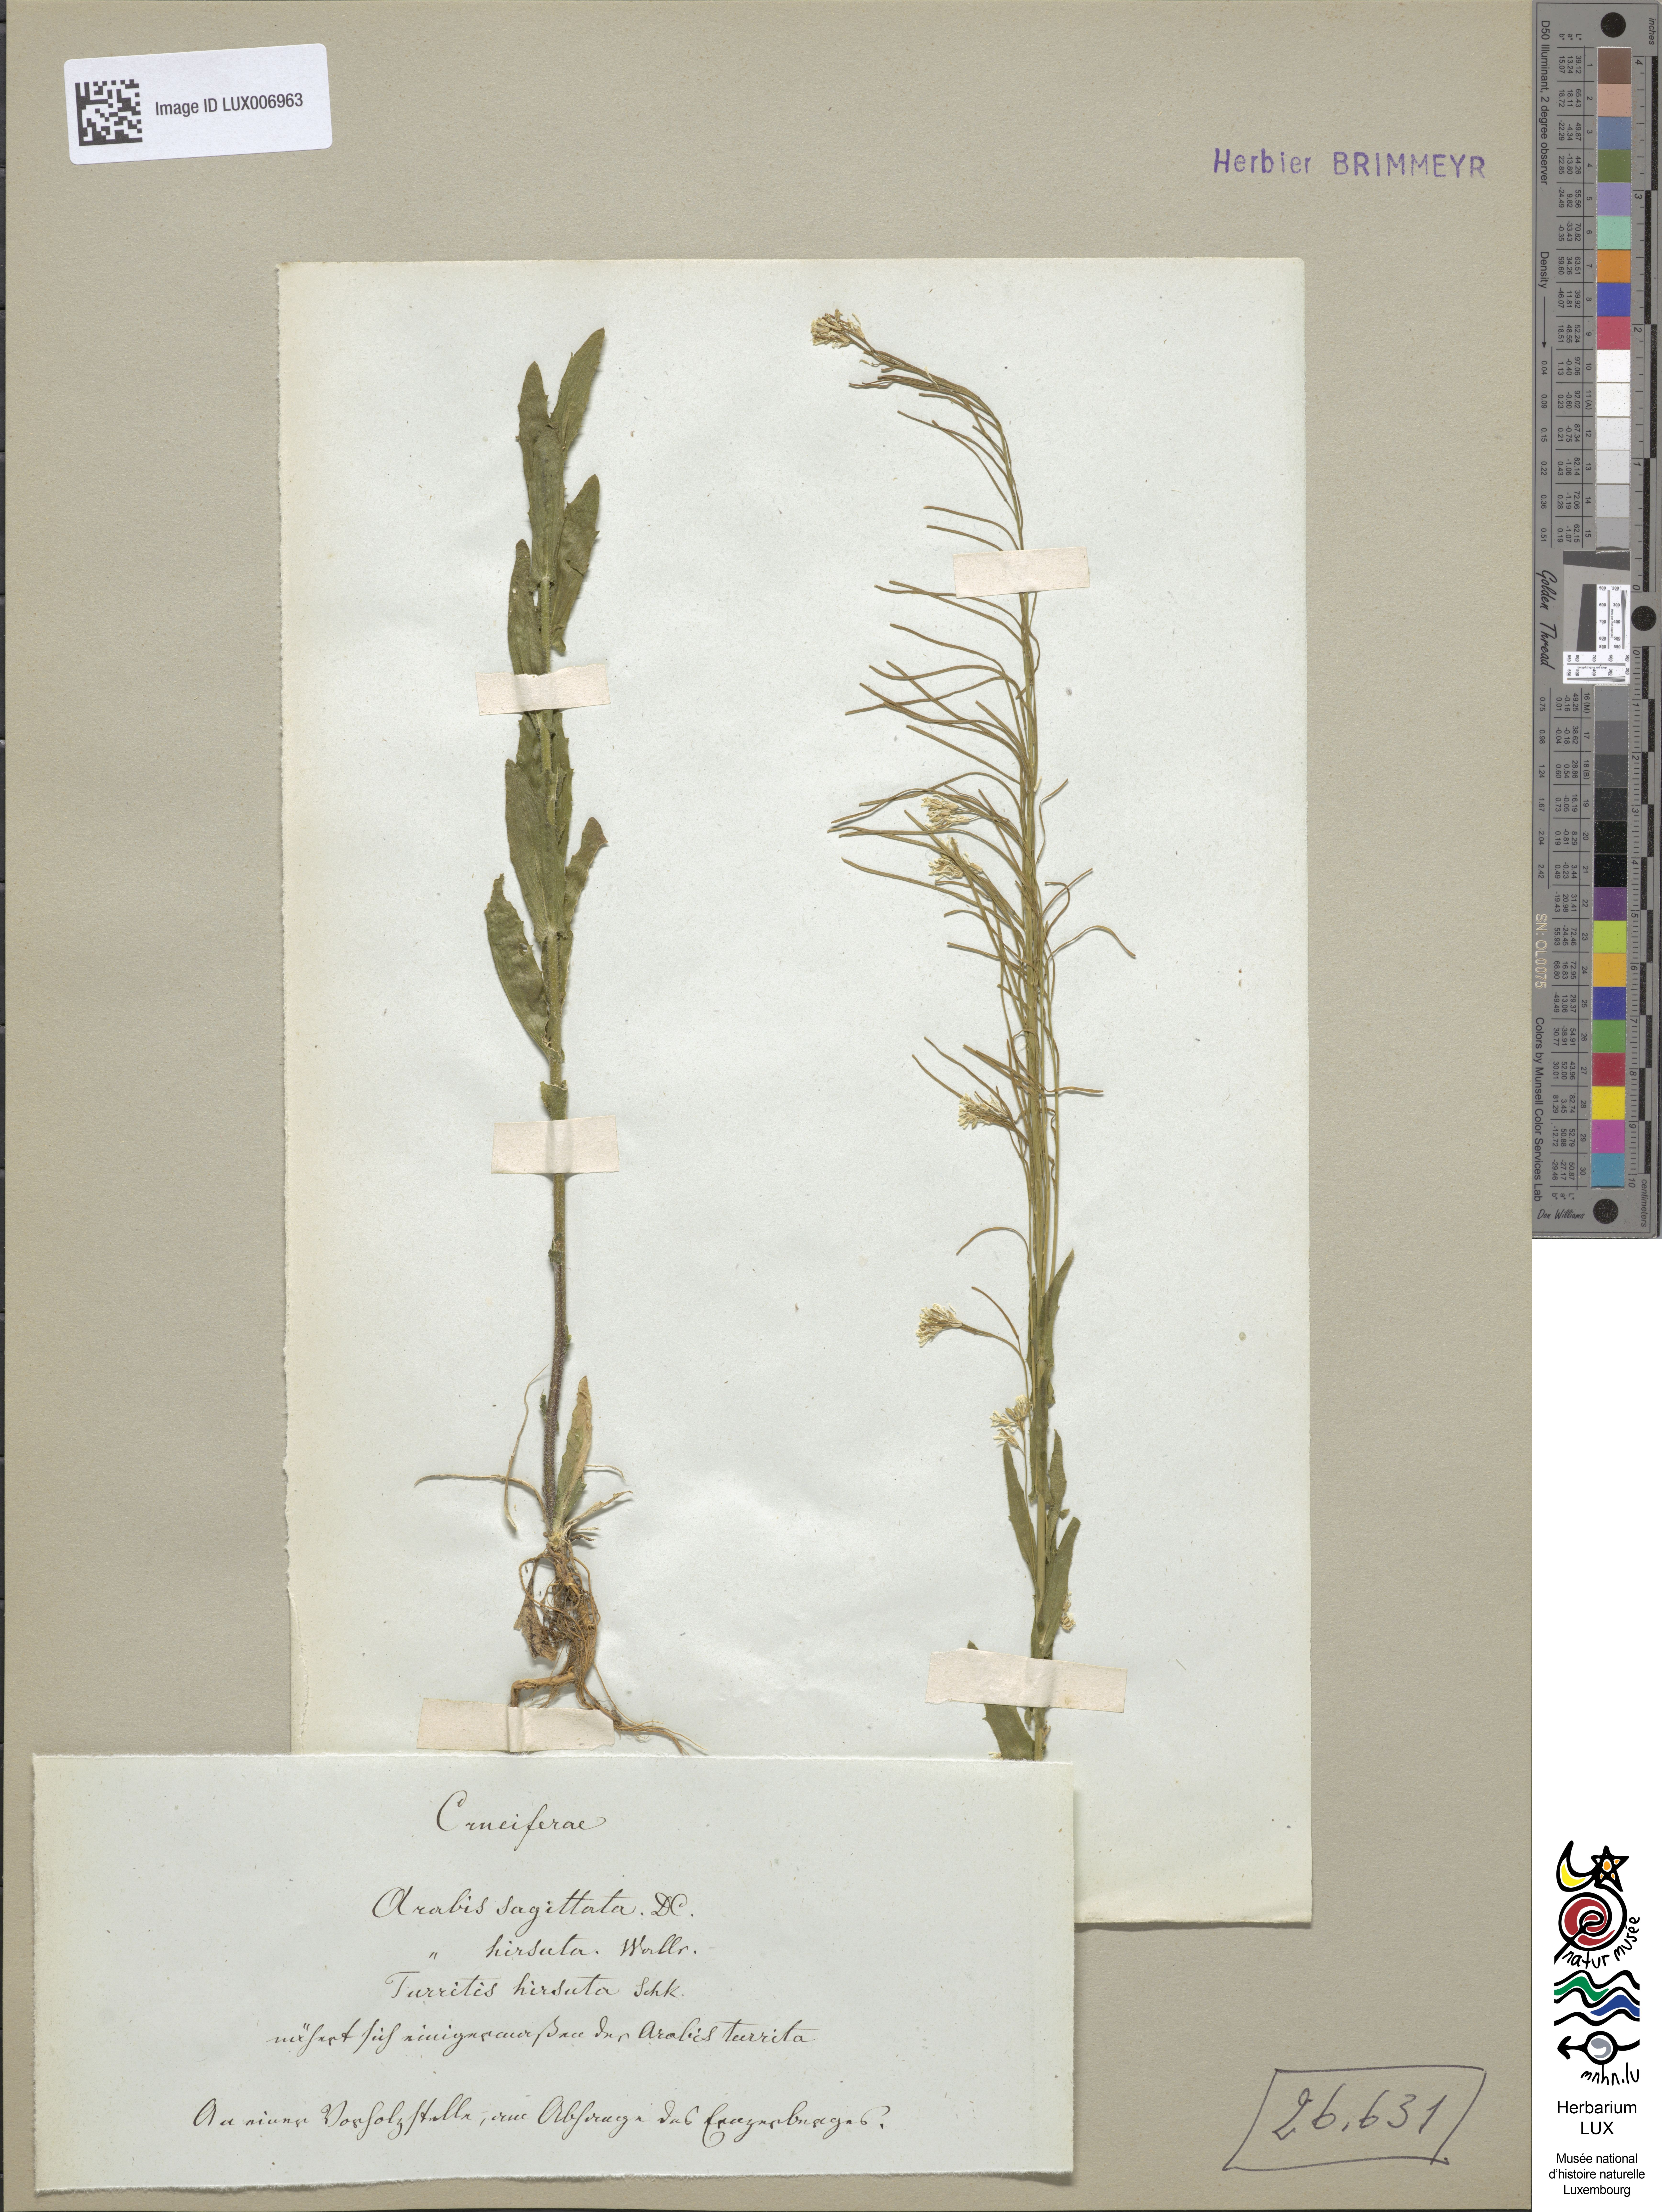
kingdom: Plantae
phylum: Tracheophyta
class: Magnoliopsida
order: Brassicales
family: Brassicaceae
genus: Arabis
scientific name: Arabis hirsuta
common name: Hairy rock-cress
